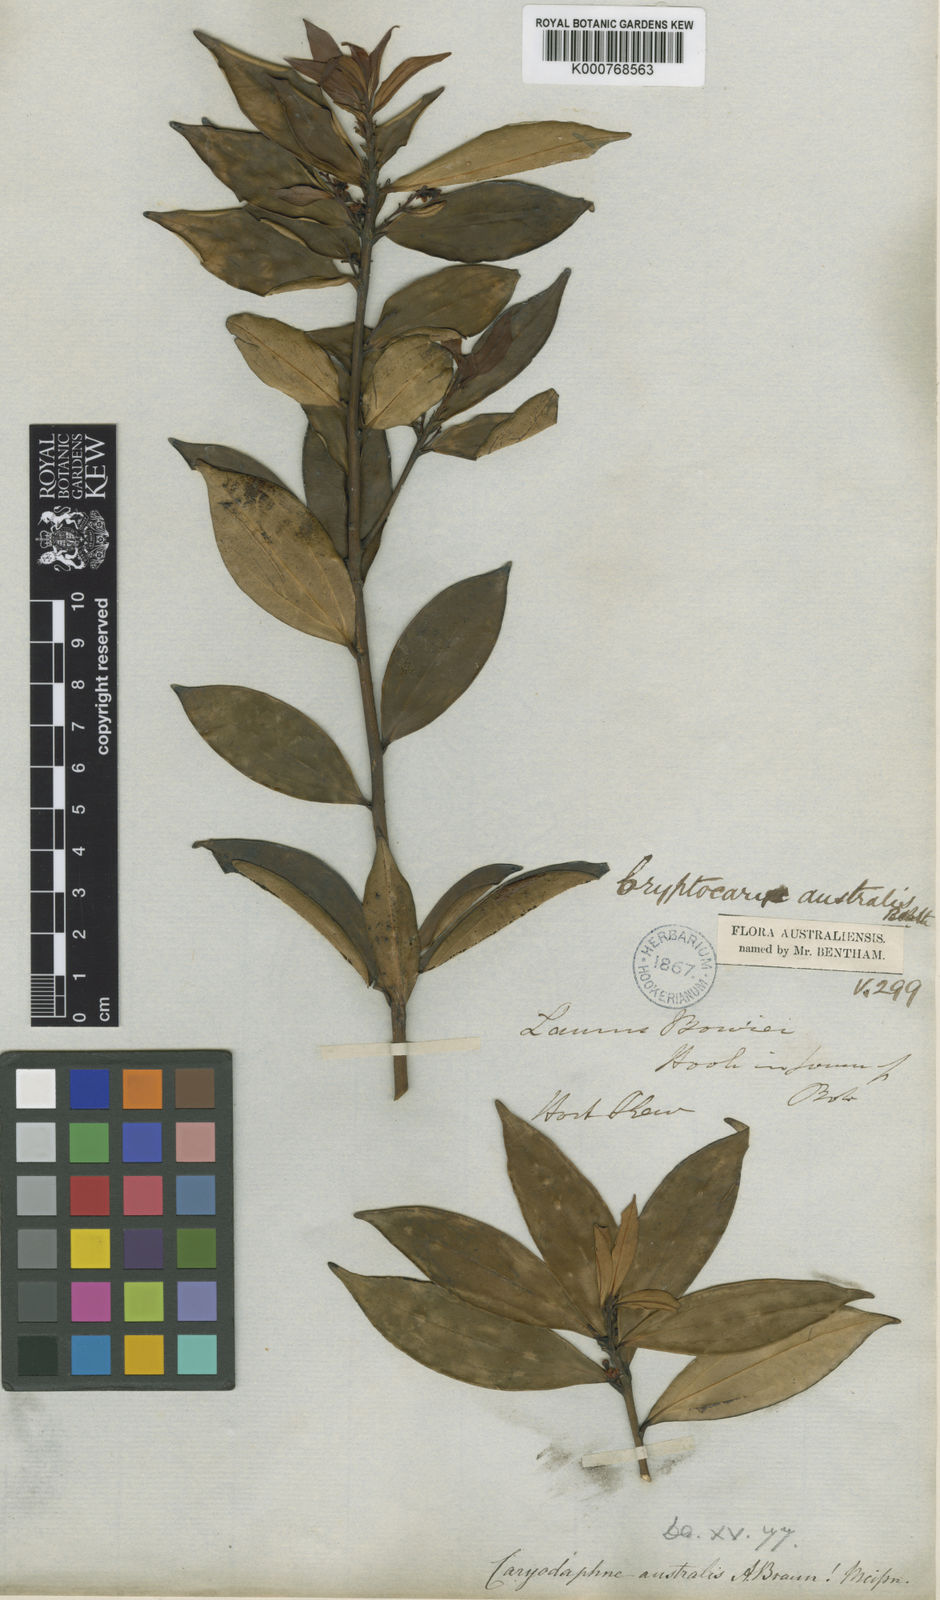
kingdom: Plantae
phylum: Tracheophyta
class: Magnoliopsida
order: Laurales
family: Lauraceae
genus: Cryptocarya
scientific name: Cryptocarya laevigata
